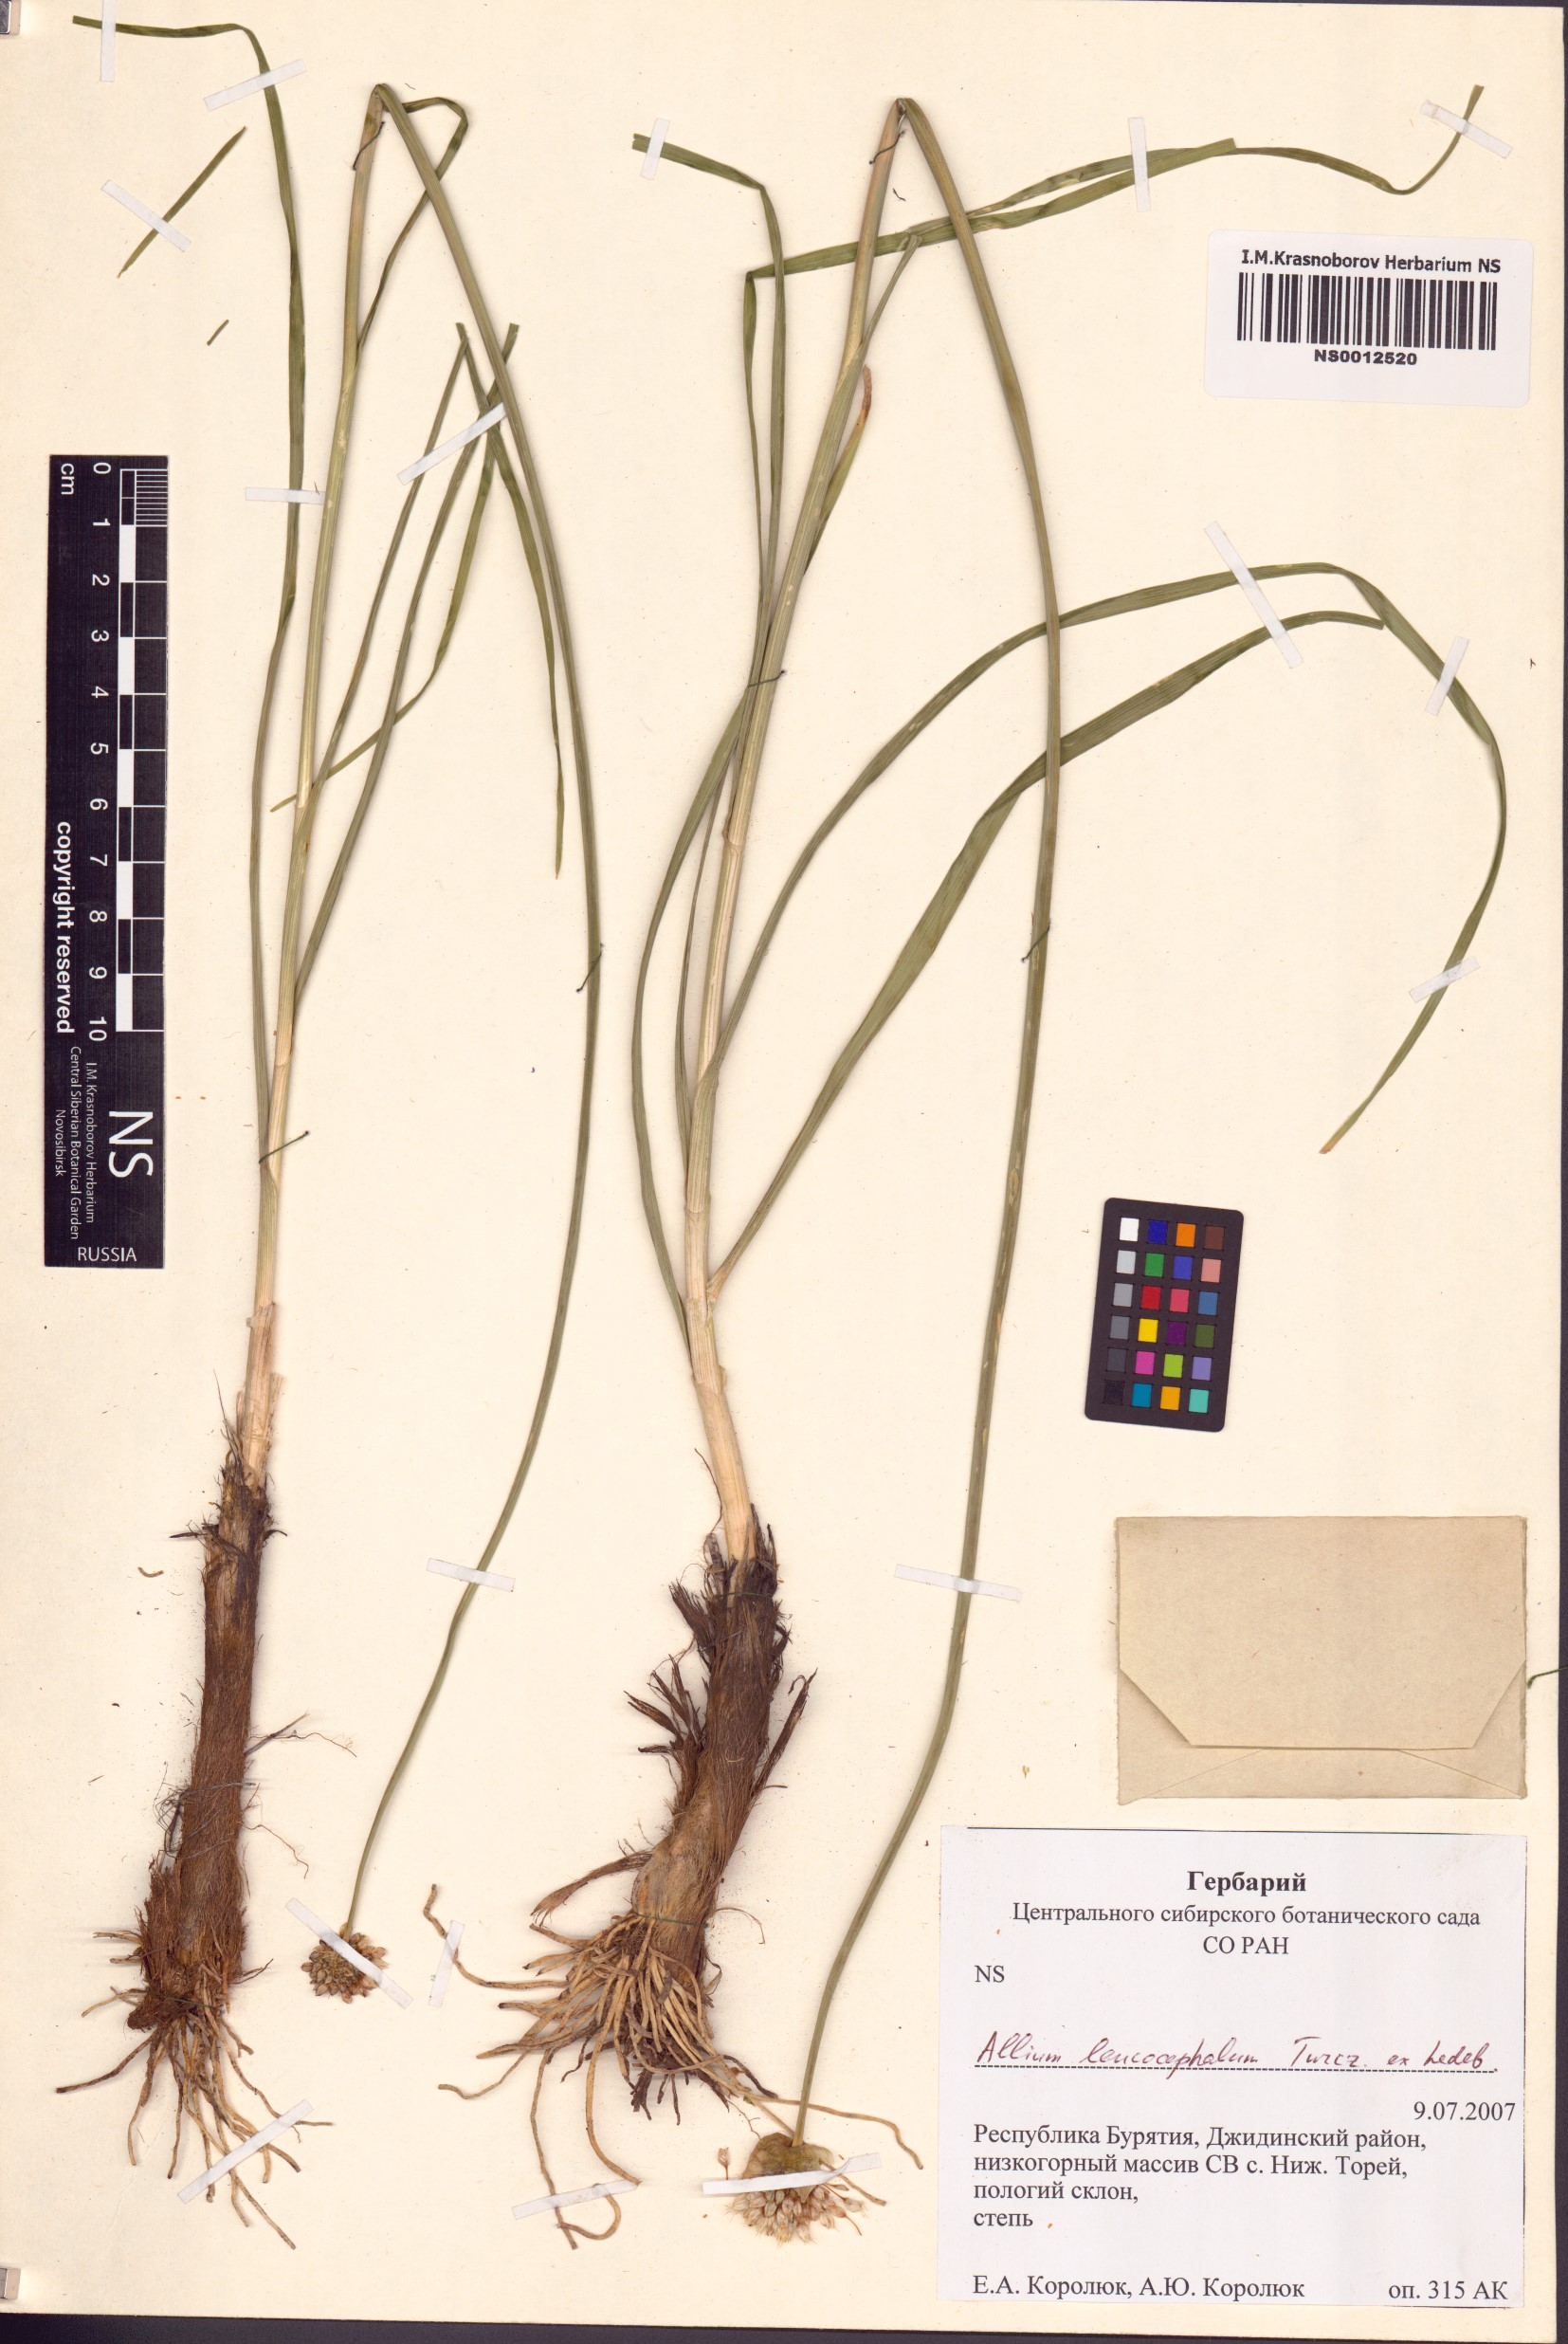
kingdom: Plantae
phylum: Tracheophyta
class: Liliopsida
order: Asparagales
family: Amaryllidaceae
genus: Allium
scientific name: Allium leucocephalum
